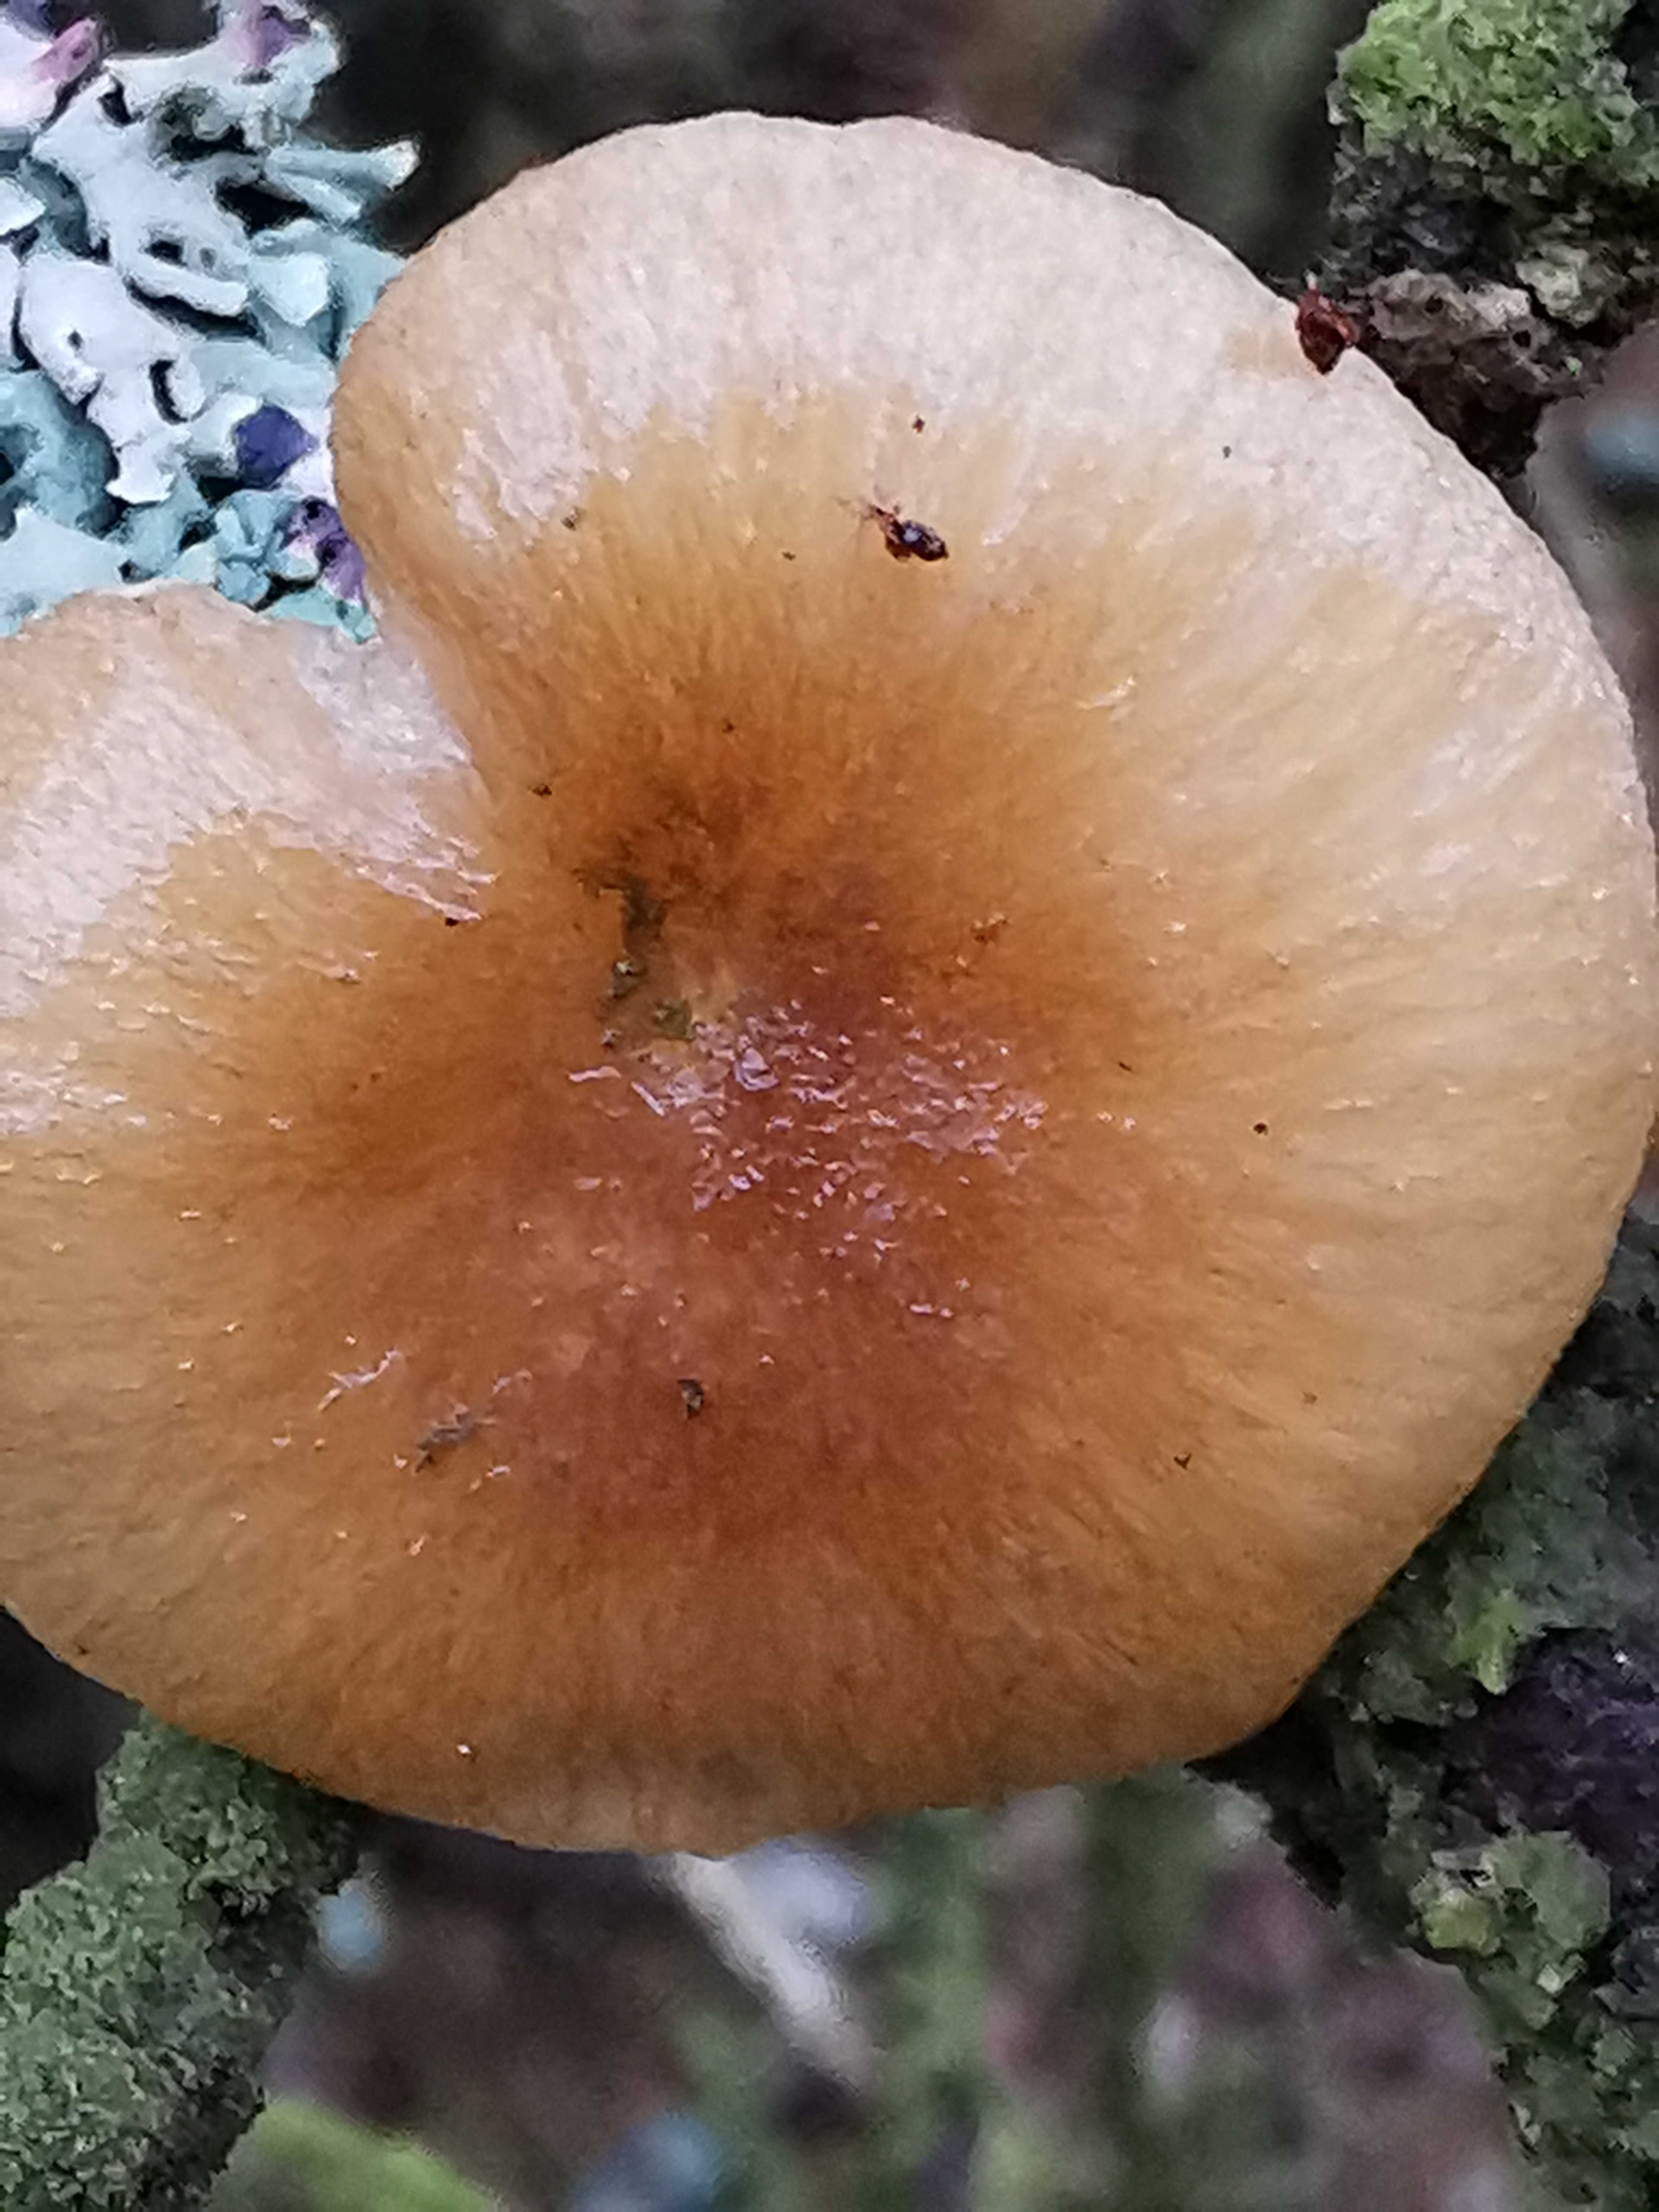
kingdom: Fungi
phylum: Basidiomycota
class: Agaricomycetes
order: Agaricales
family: Hygrophoraceae
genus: Hygrophorus
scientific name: Hygrophorus hypothejus
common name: frost-sneglehat
